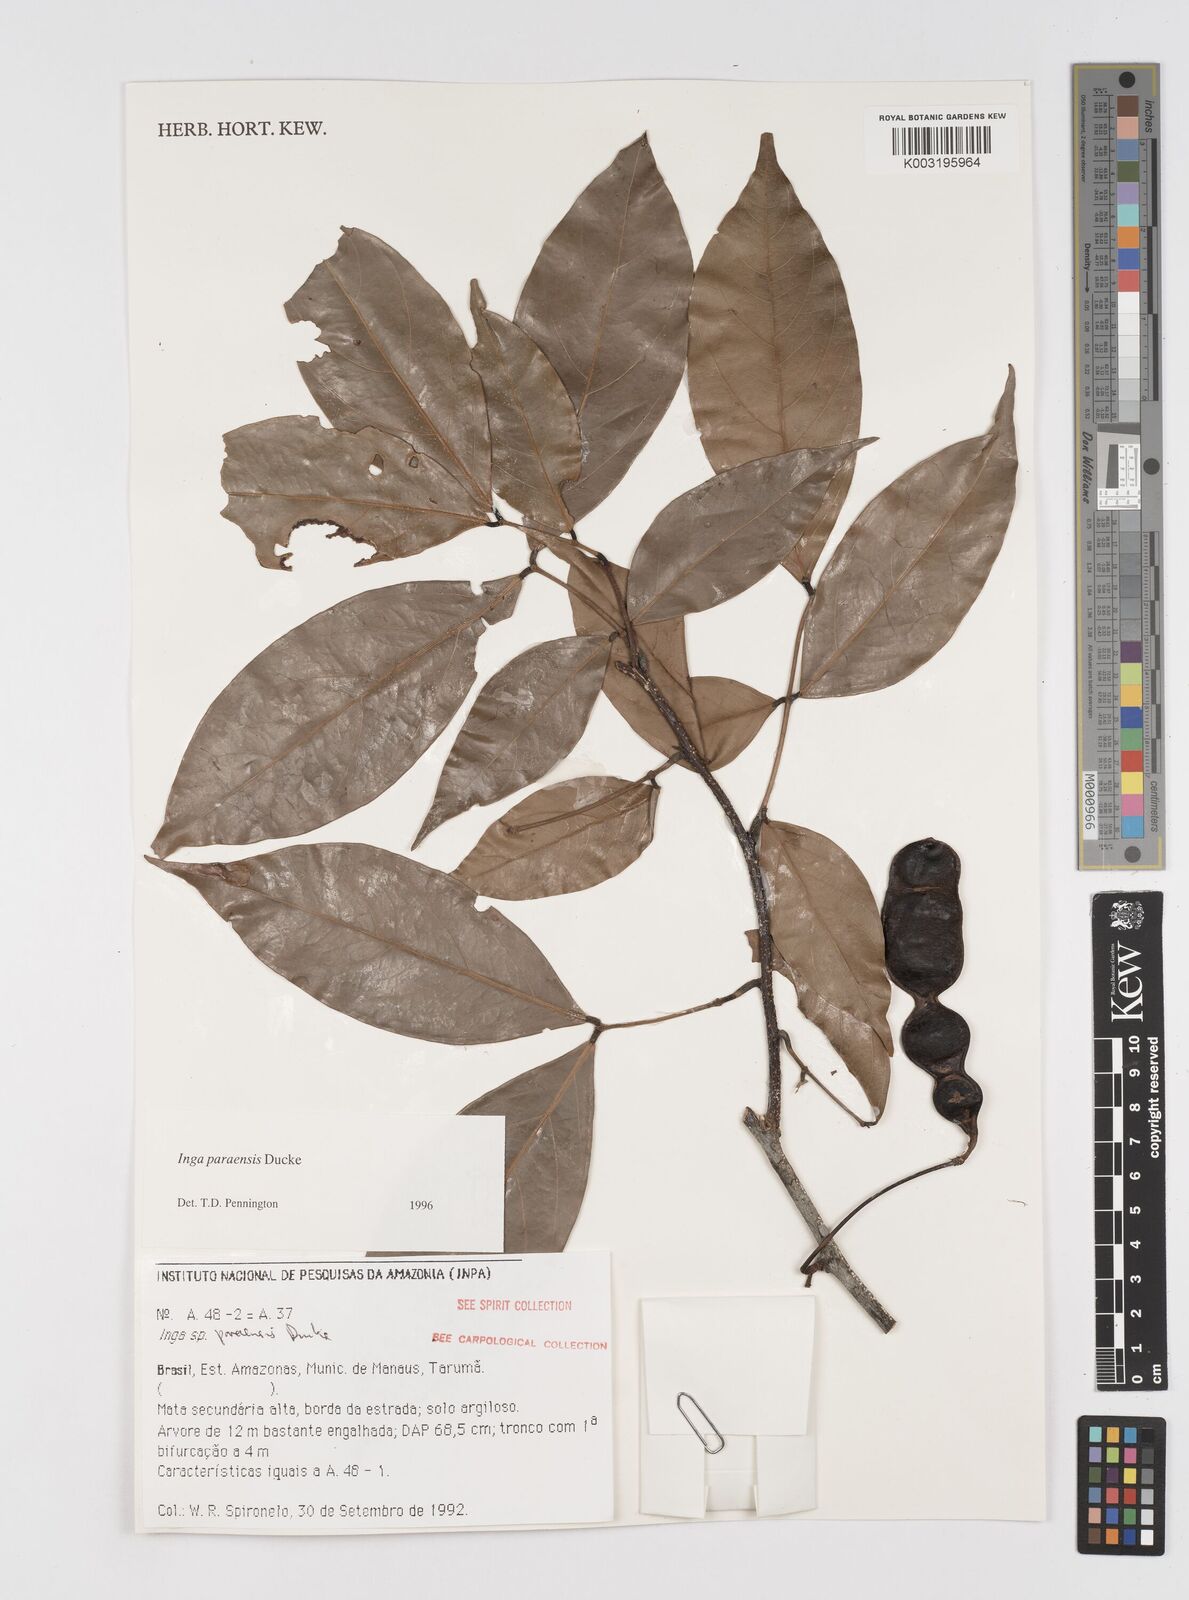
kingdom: Plantae
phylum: Tracheophyta
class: Magnoliopsida
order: Fabales
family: Fabaceae
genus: Inga
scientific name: Inga paraensis
